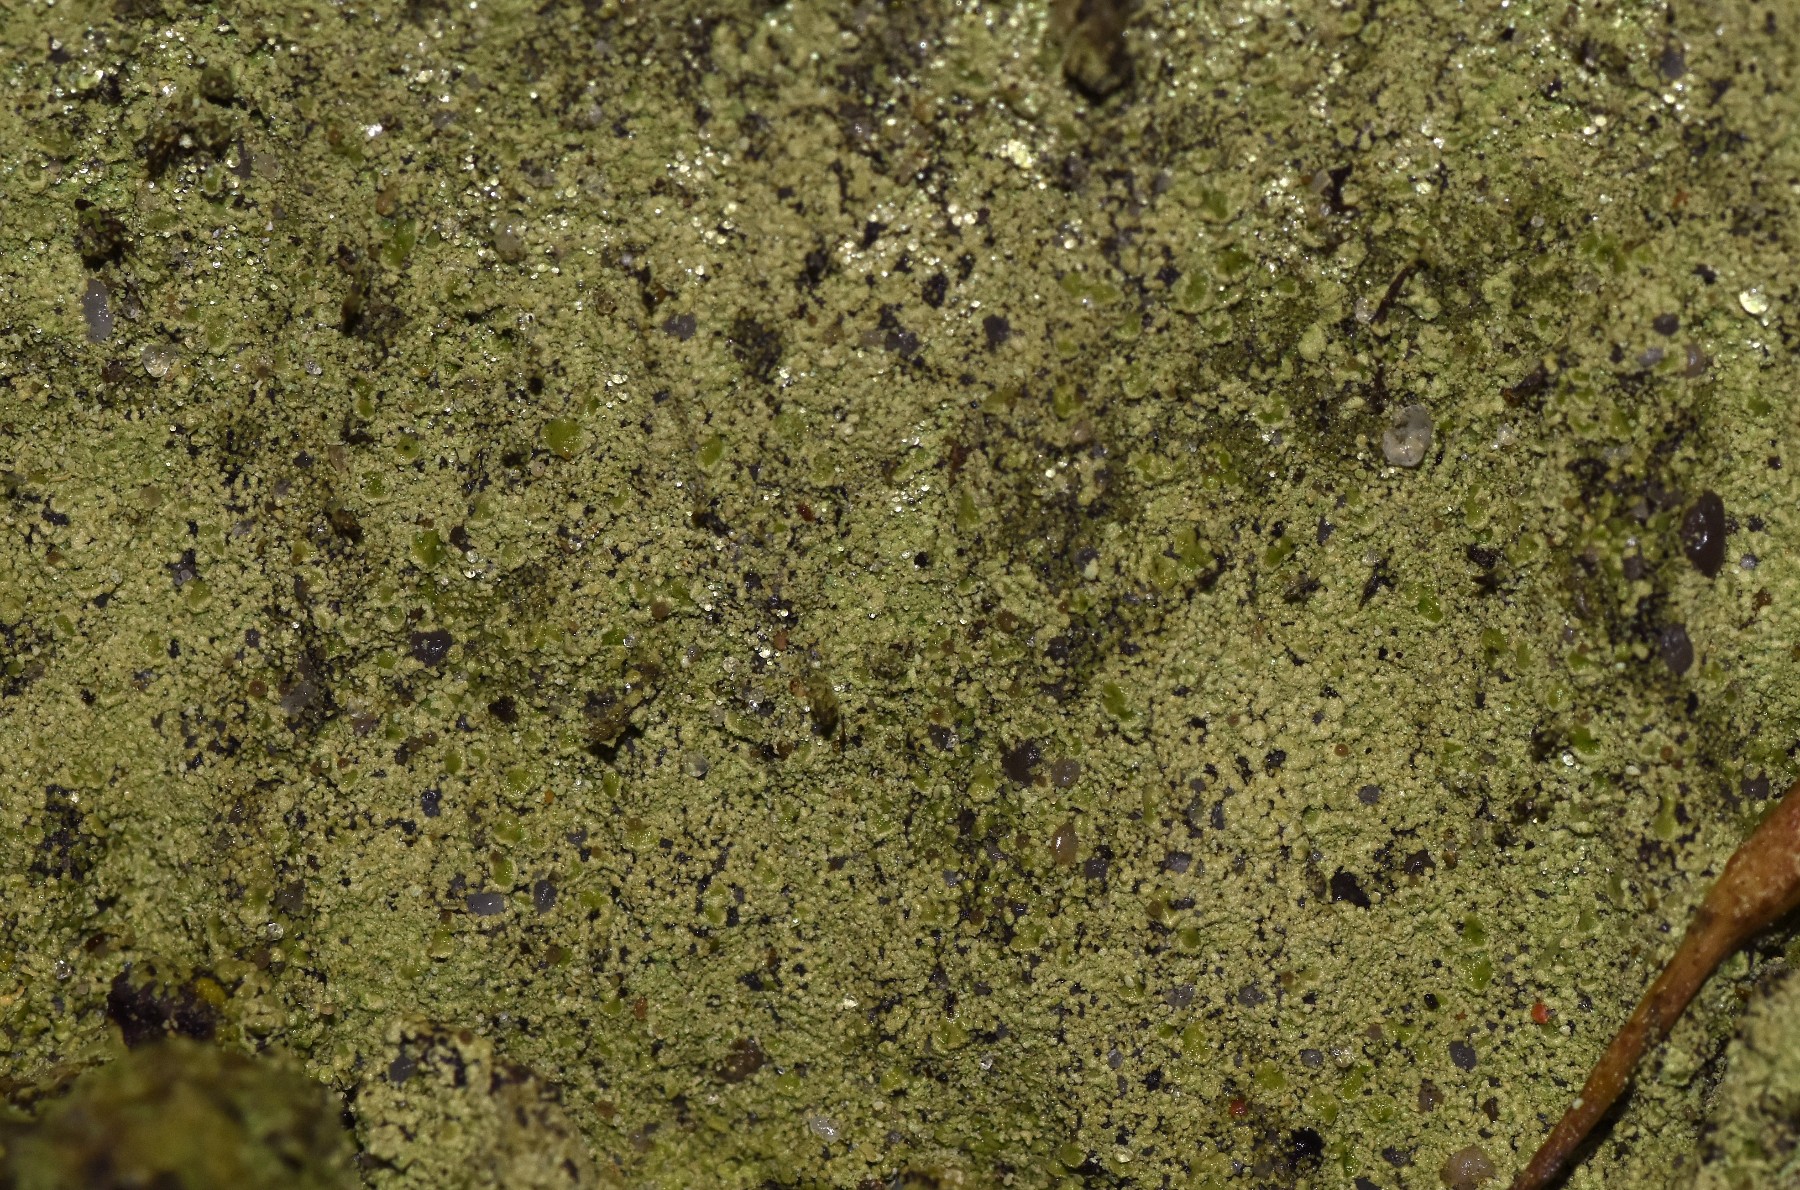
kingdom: Fungi
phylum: Ascomycota
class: Lecanoromycetes
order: Baeomycetales
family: Baeomycetaceae
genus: Baeomyces
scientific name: Baeomyces rufus
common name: rødbrun svampelav
